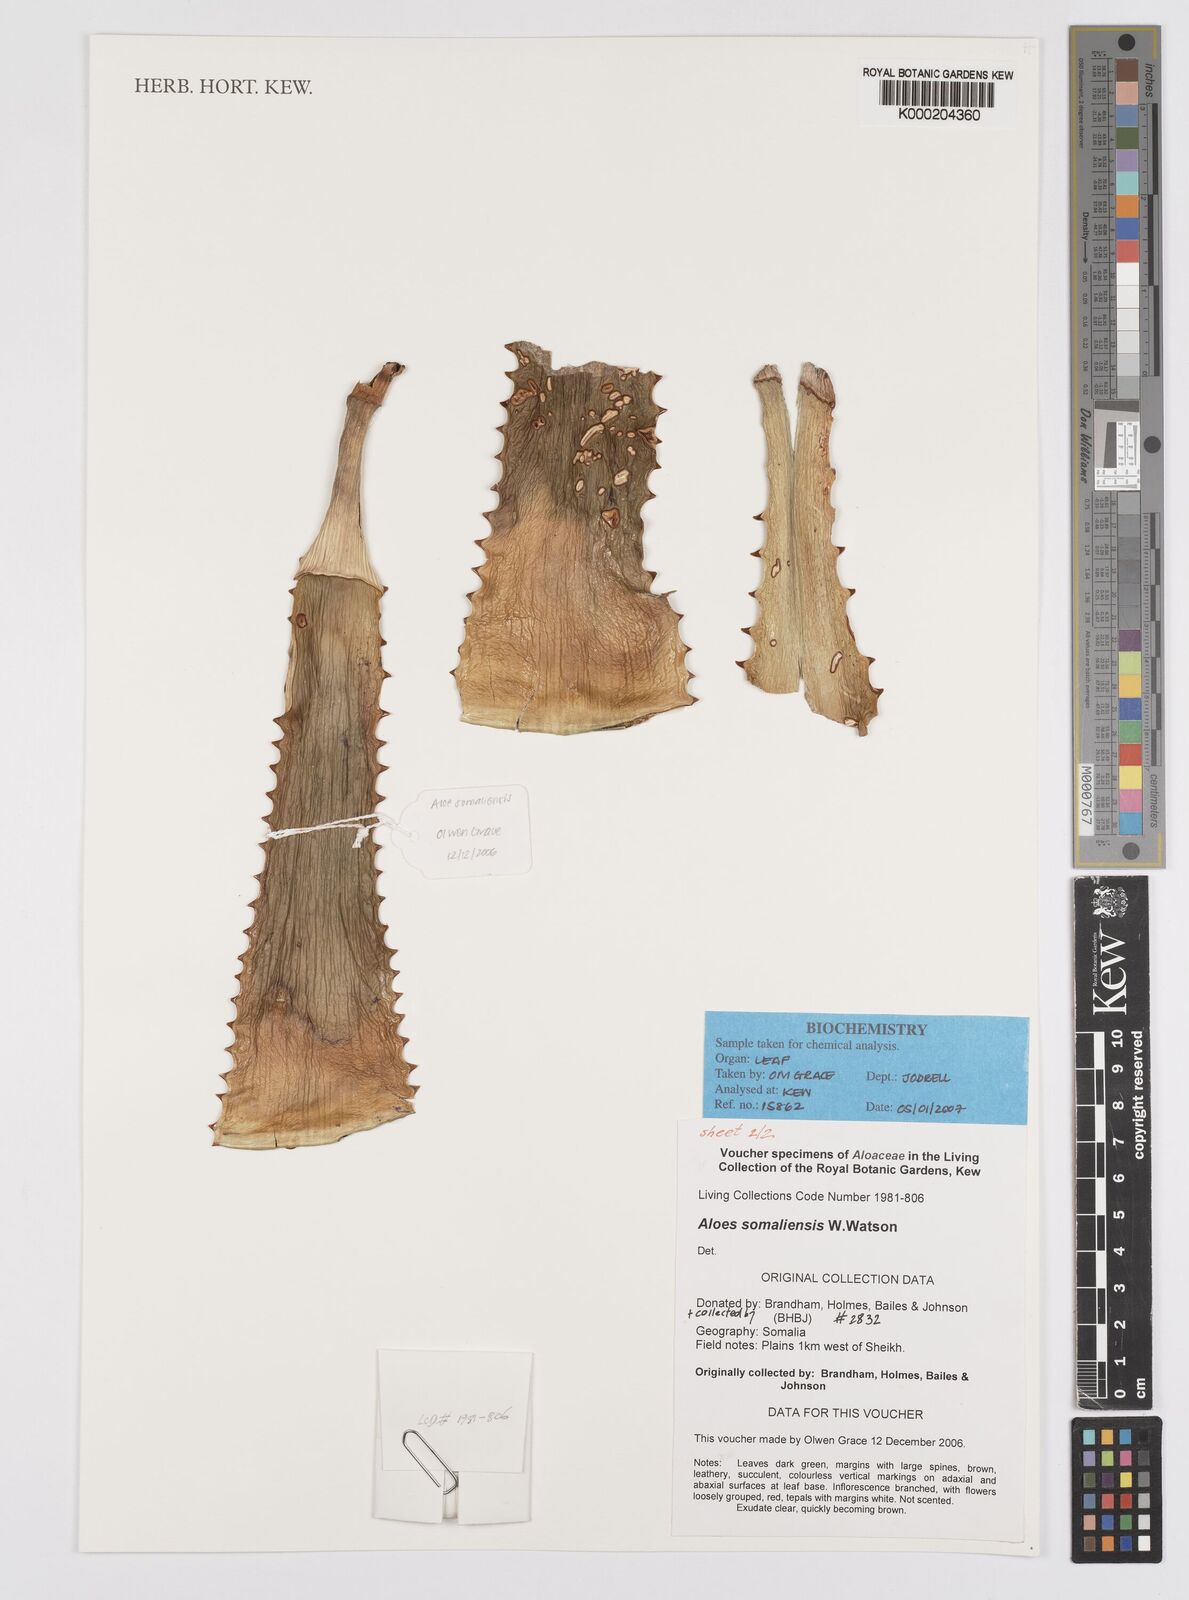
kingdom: Plantae
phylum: Tracheophyta
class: Liliopsida
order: Asparagales
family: Asphodelaceae
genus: Aloe
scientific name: Aloe somaliensis
